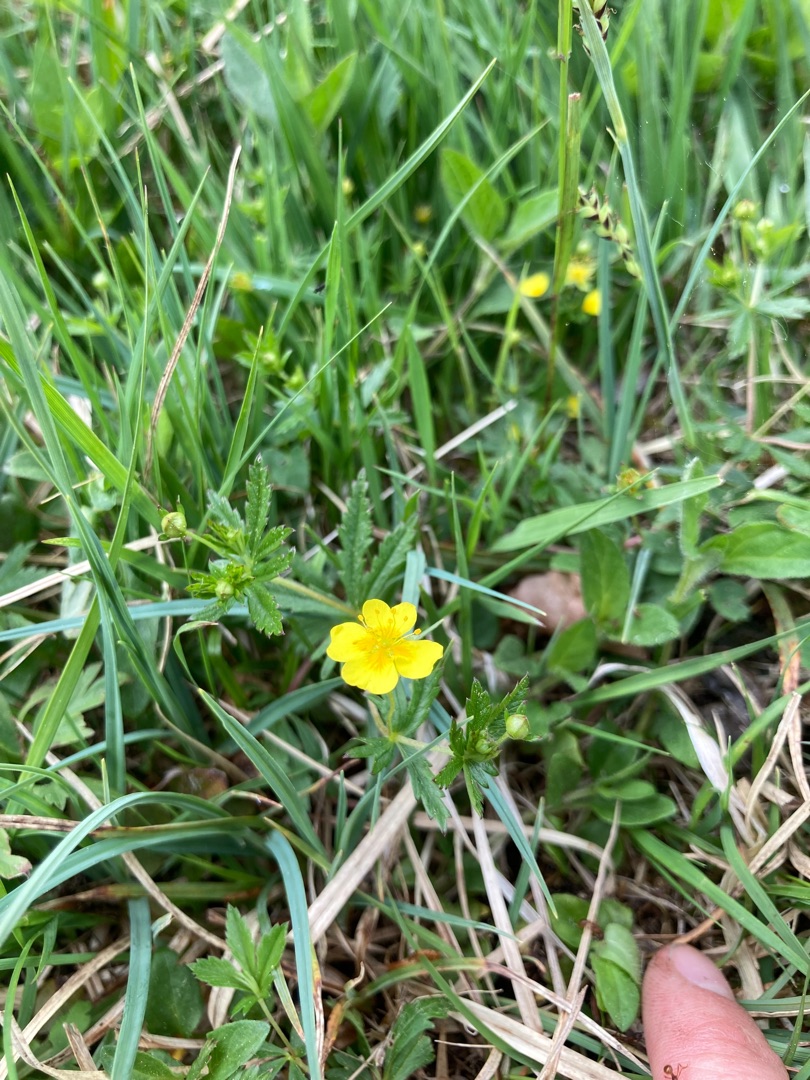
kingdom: Plantae
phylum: Tracheophyta
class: Magnoliopsida
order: Rosales
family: Rosaceae
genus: Potentilla
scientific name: Potentilla erecta
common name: Tormentil
